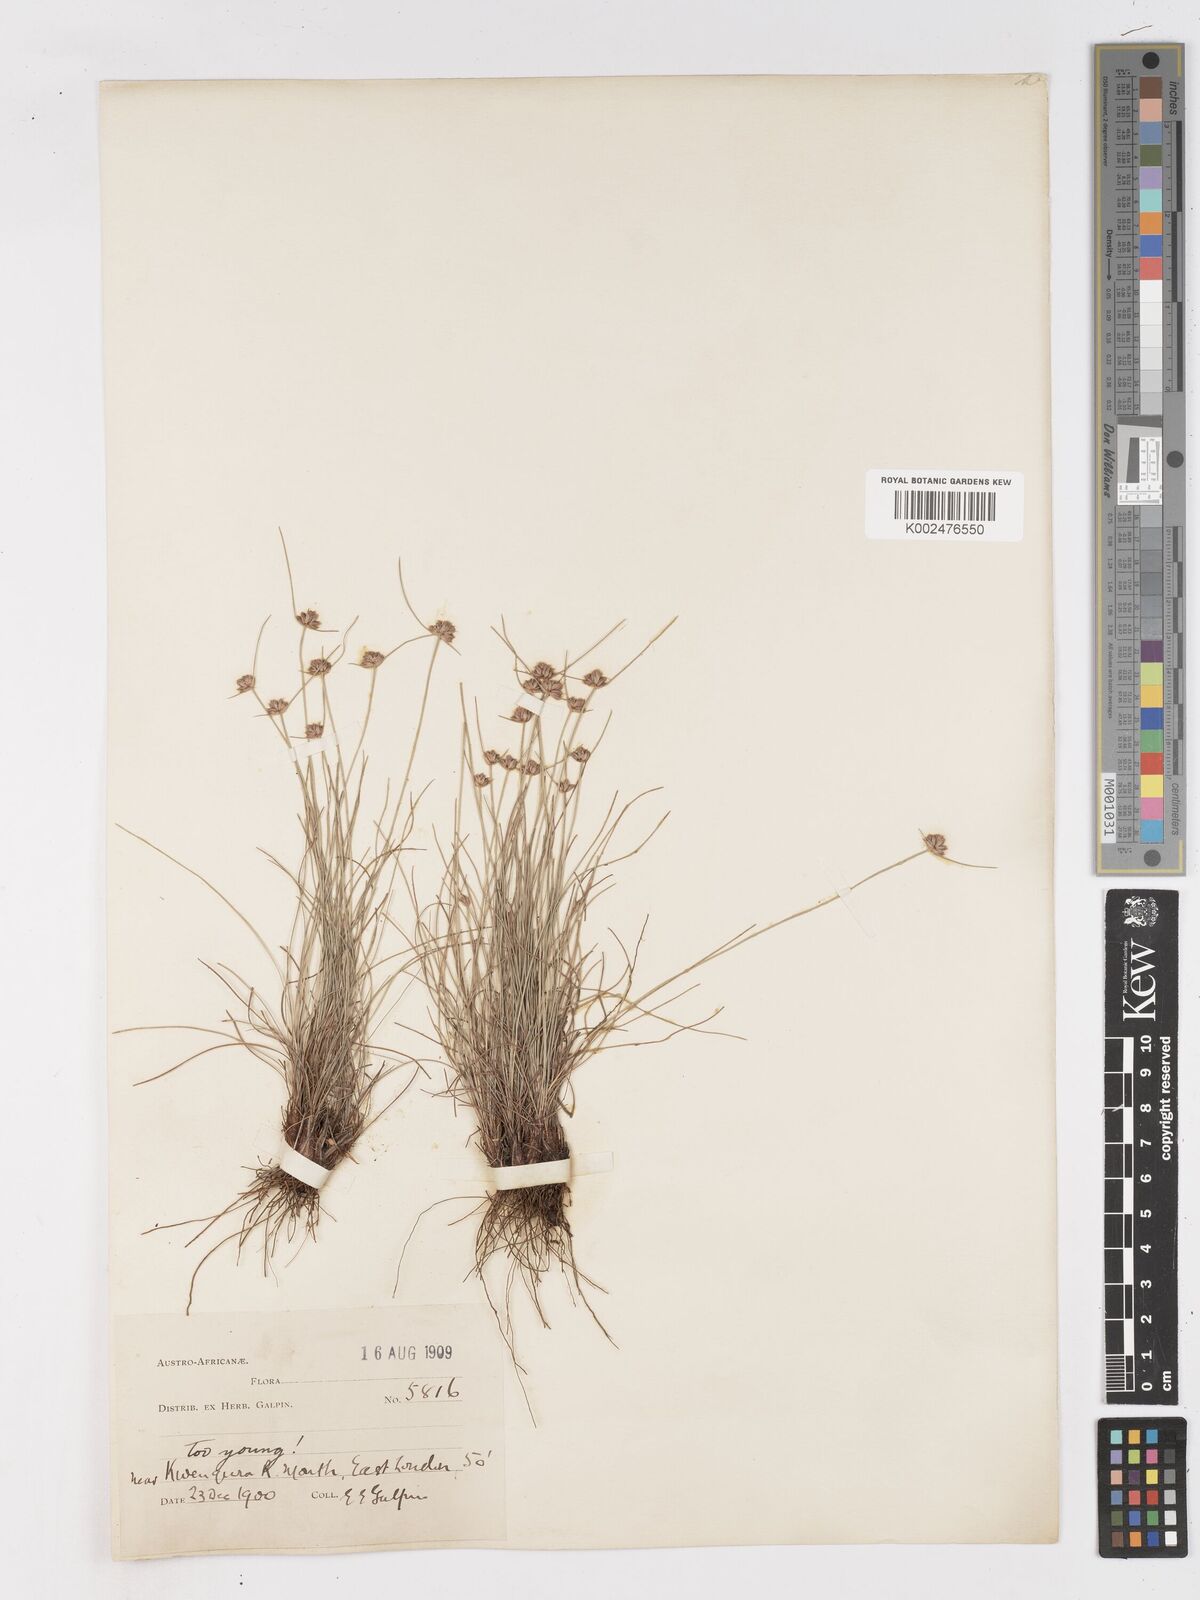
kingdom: Plantae
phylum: Tracheophyta
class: Liliopsida
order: Poales
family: Cyperaceae
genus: Ficinia
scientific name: Ficinia
